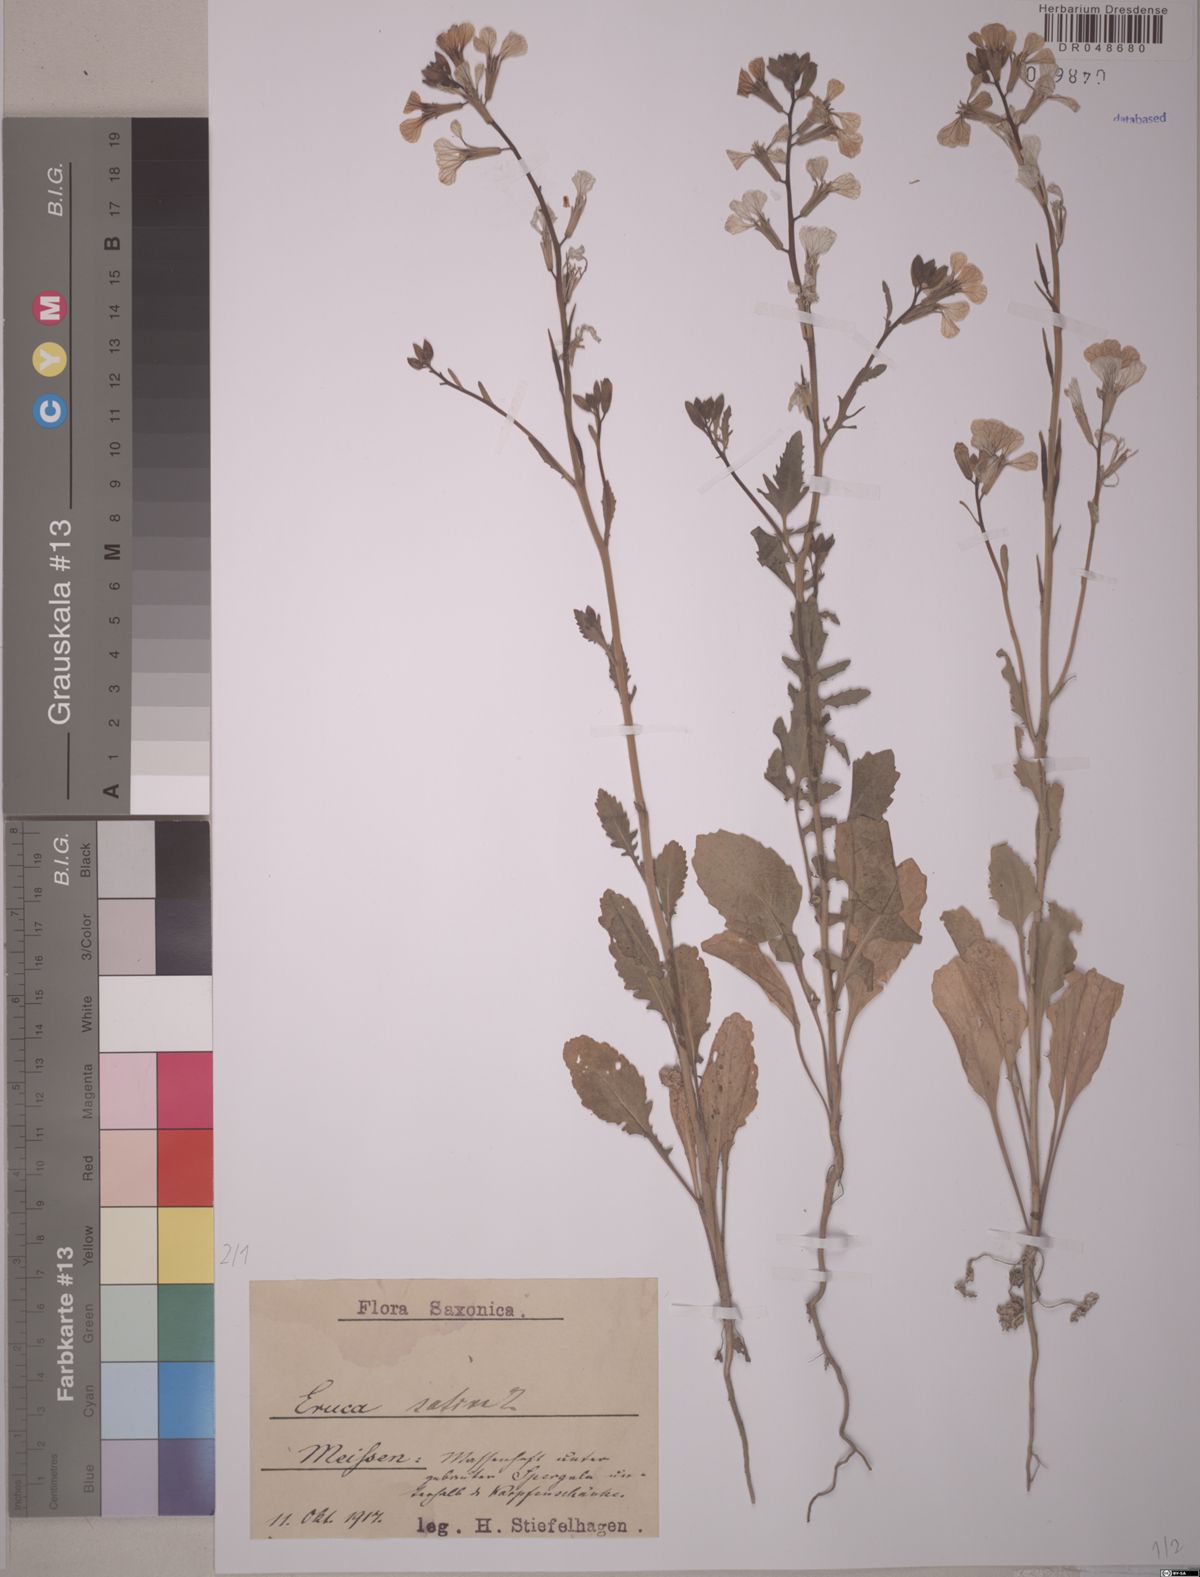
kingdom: Plantae
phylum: Tracheophyta
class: Magnoliopsida
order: Brassicales
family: Brassicaceae
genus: Eruca
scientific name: Eruca vesicaria
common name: Garden rocket
